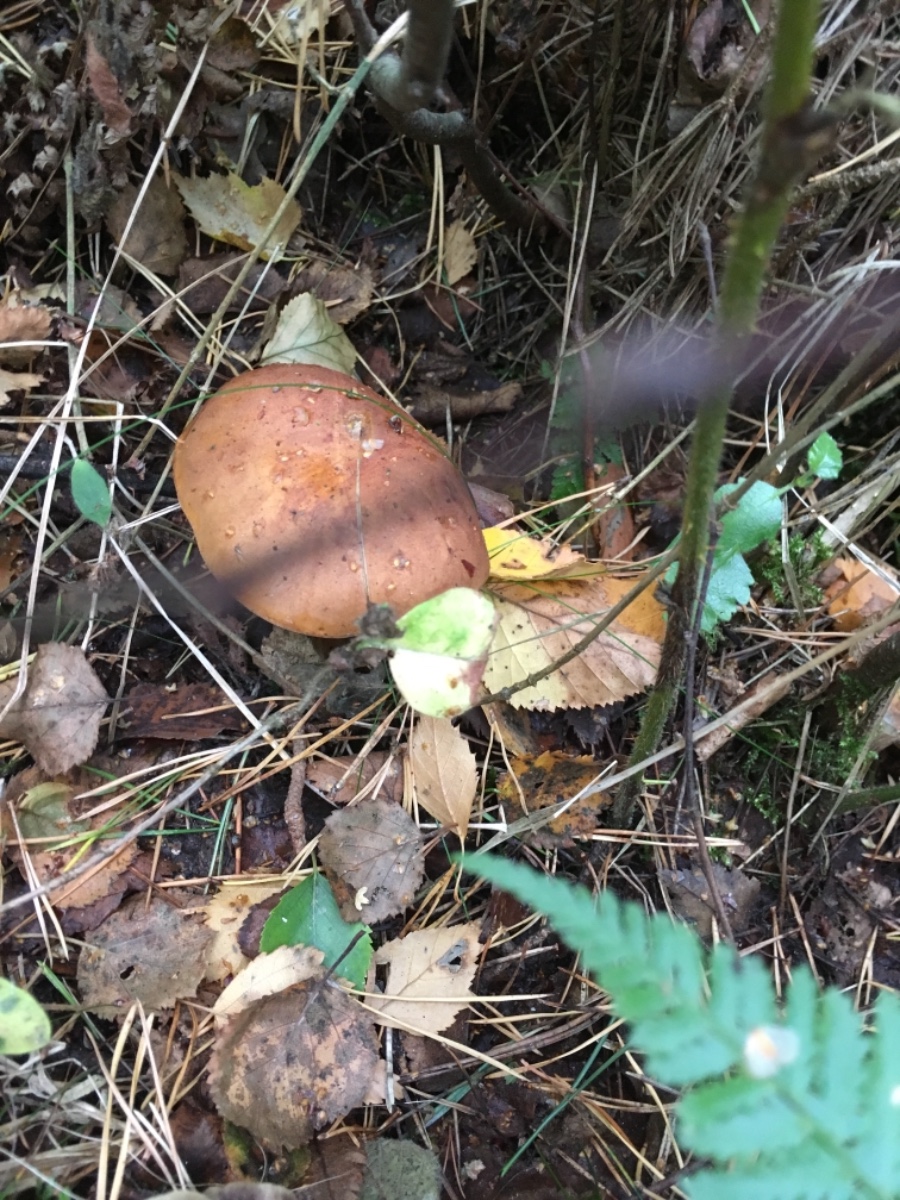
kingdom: Fungi
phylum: Basidiomycota
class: Agaricomycetes
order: Boletales
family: Boletaceae
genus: Imleria
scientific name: Imleria badia
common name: brunstokket rørhat
